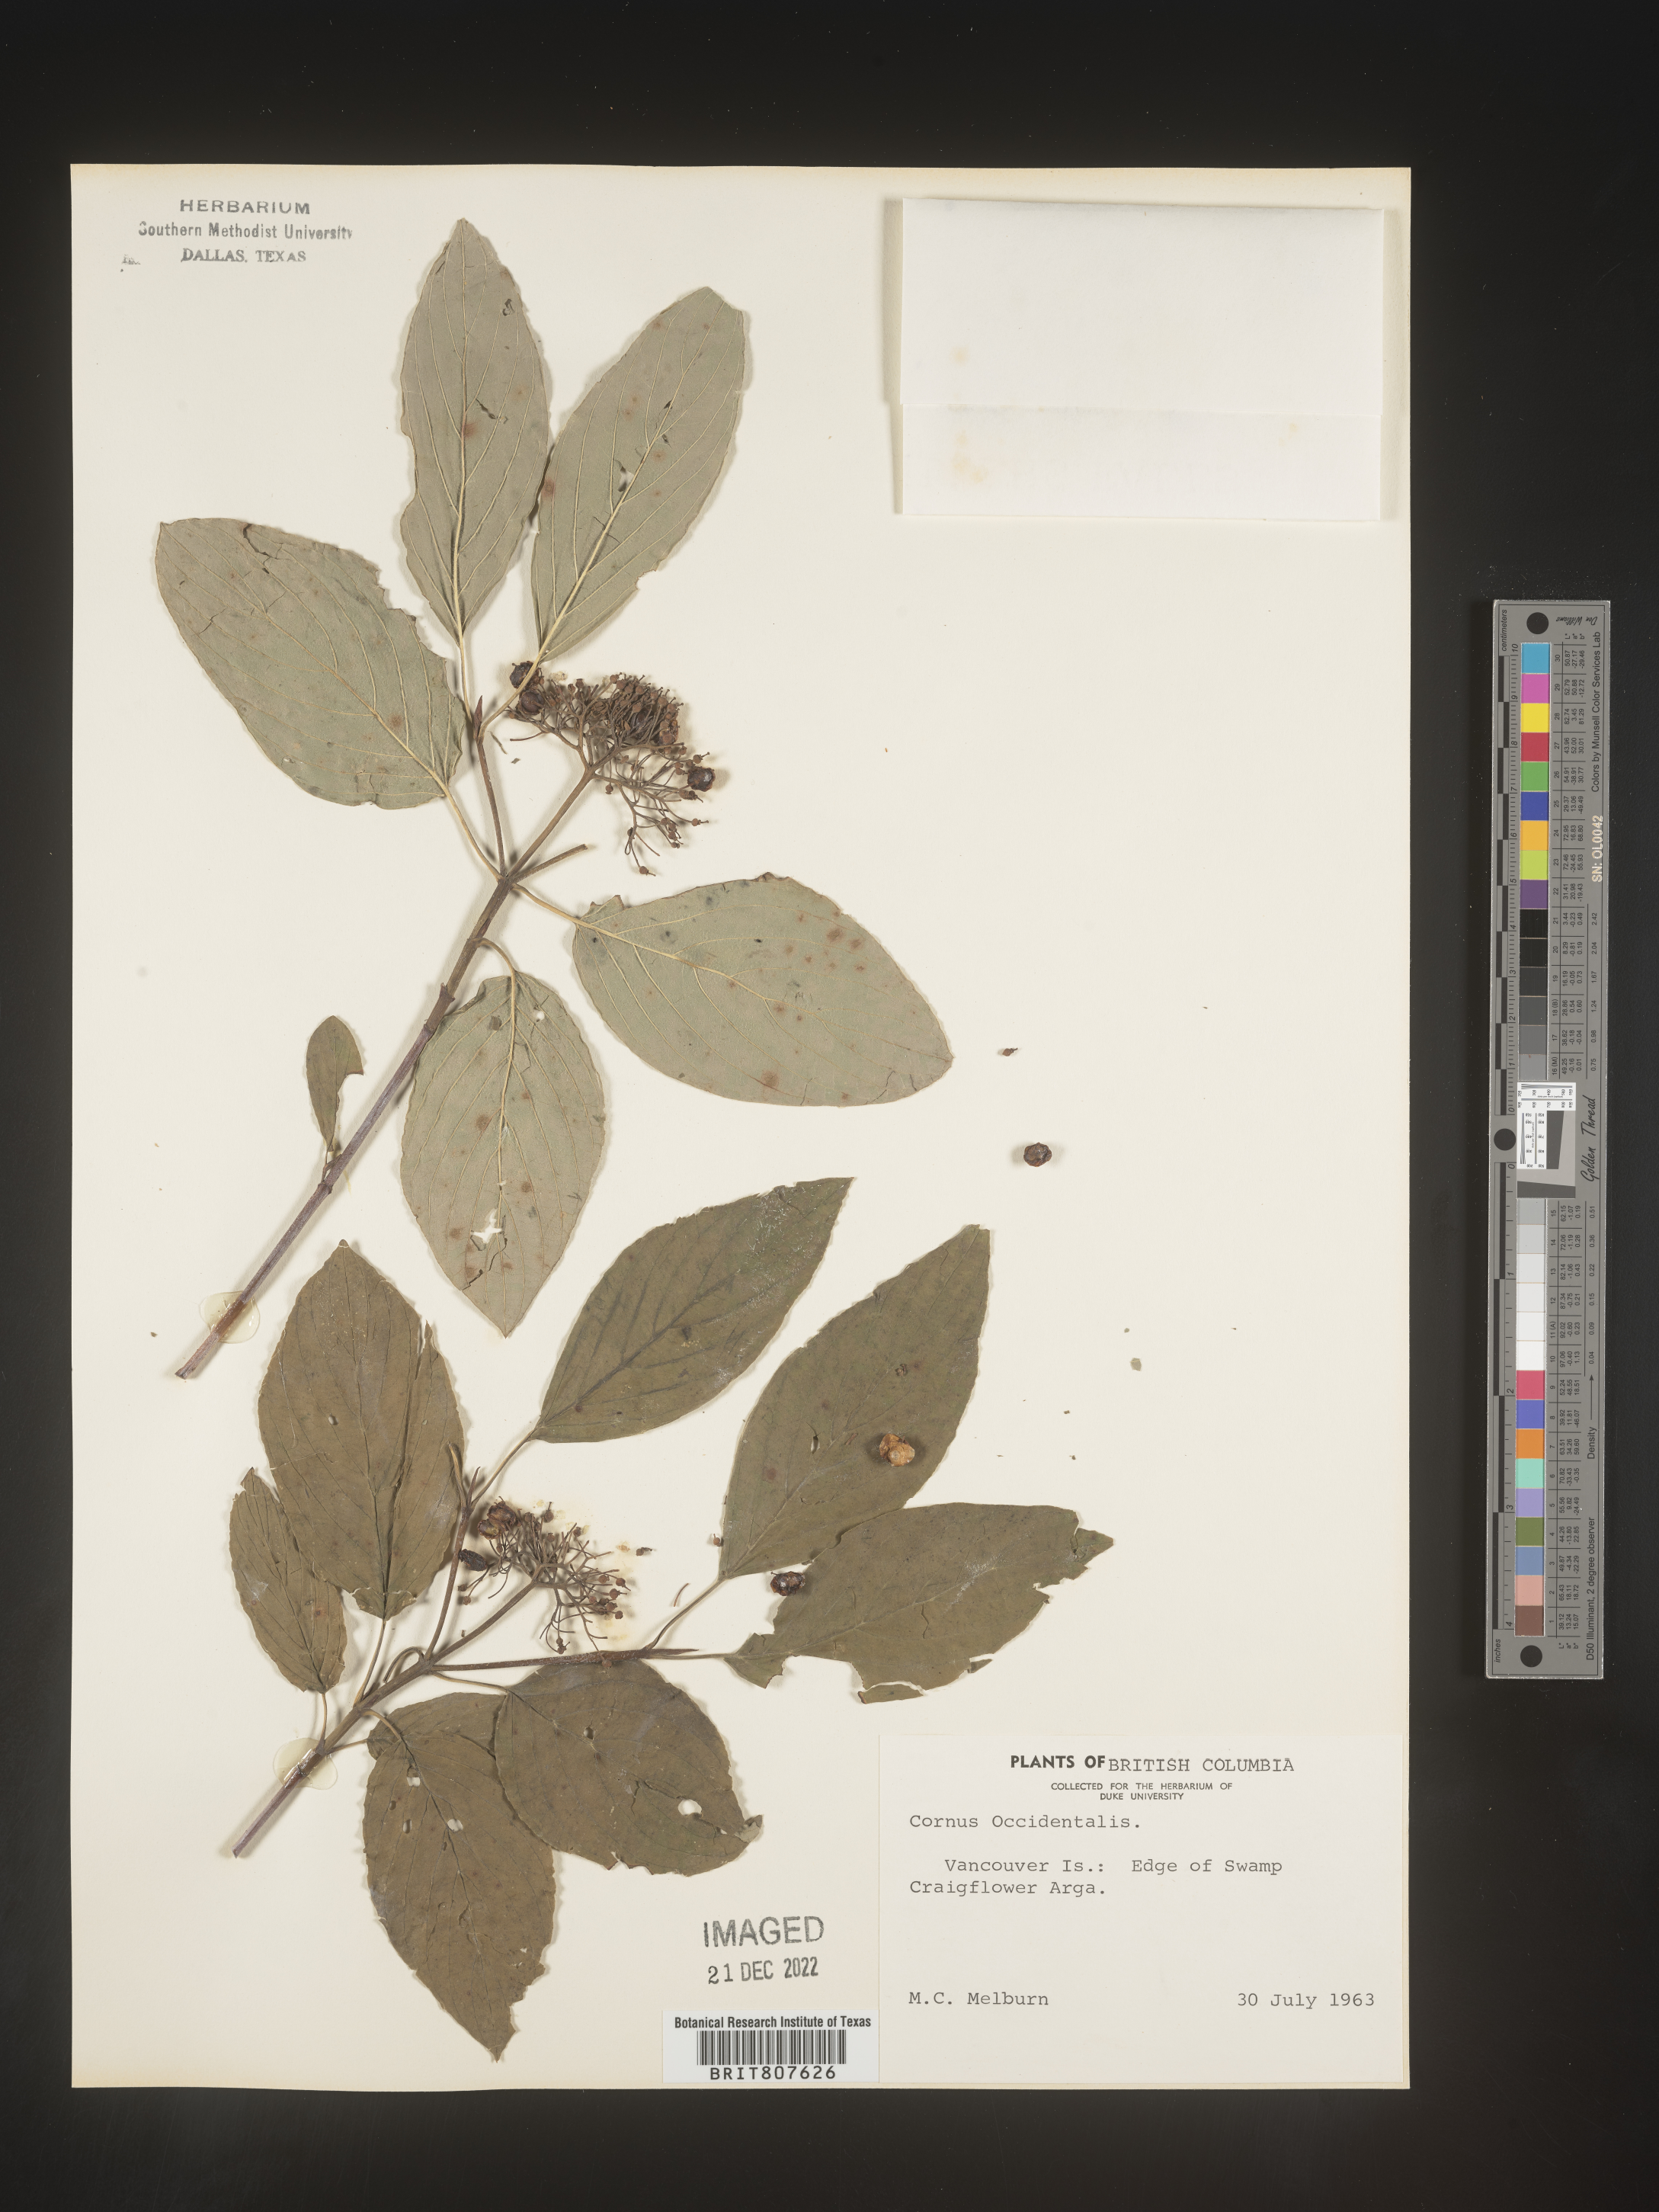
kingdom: Plantae
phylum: Tracheophyta
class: Magnoliopsida
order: Cornales
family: Cornaceae
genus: Cornus
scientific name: Cornus
